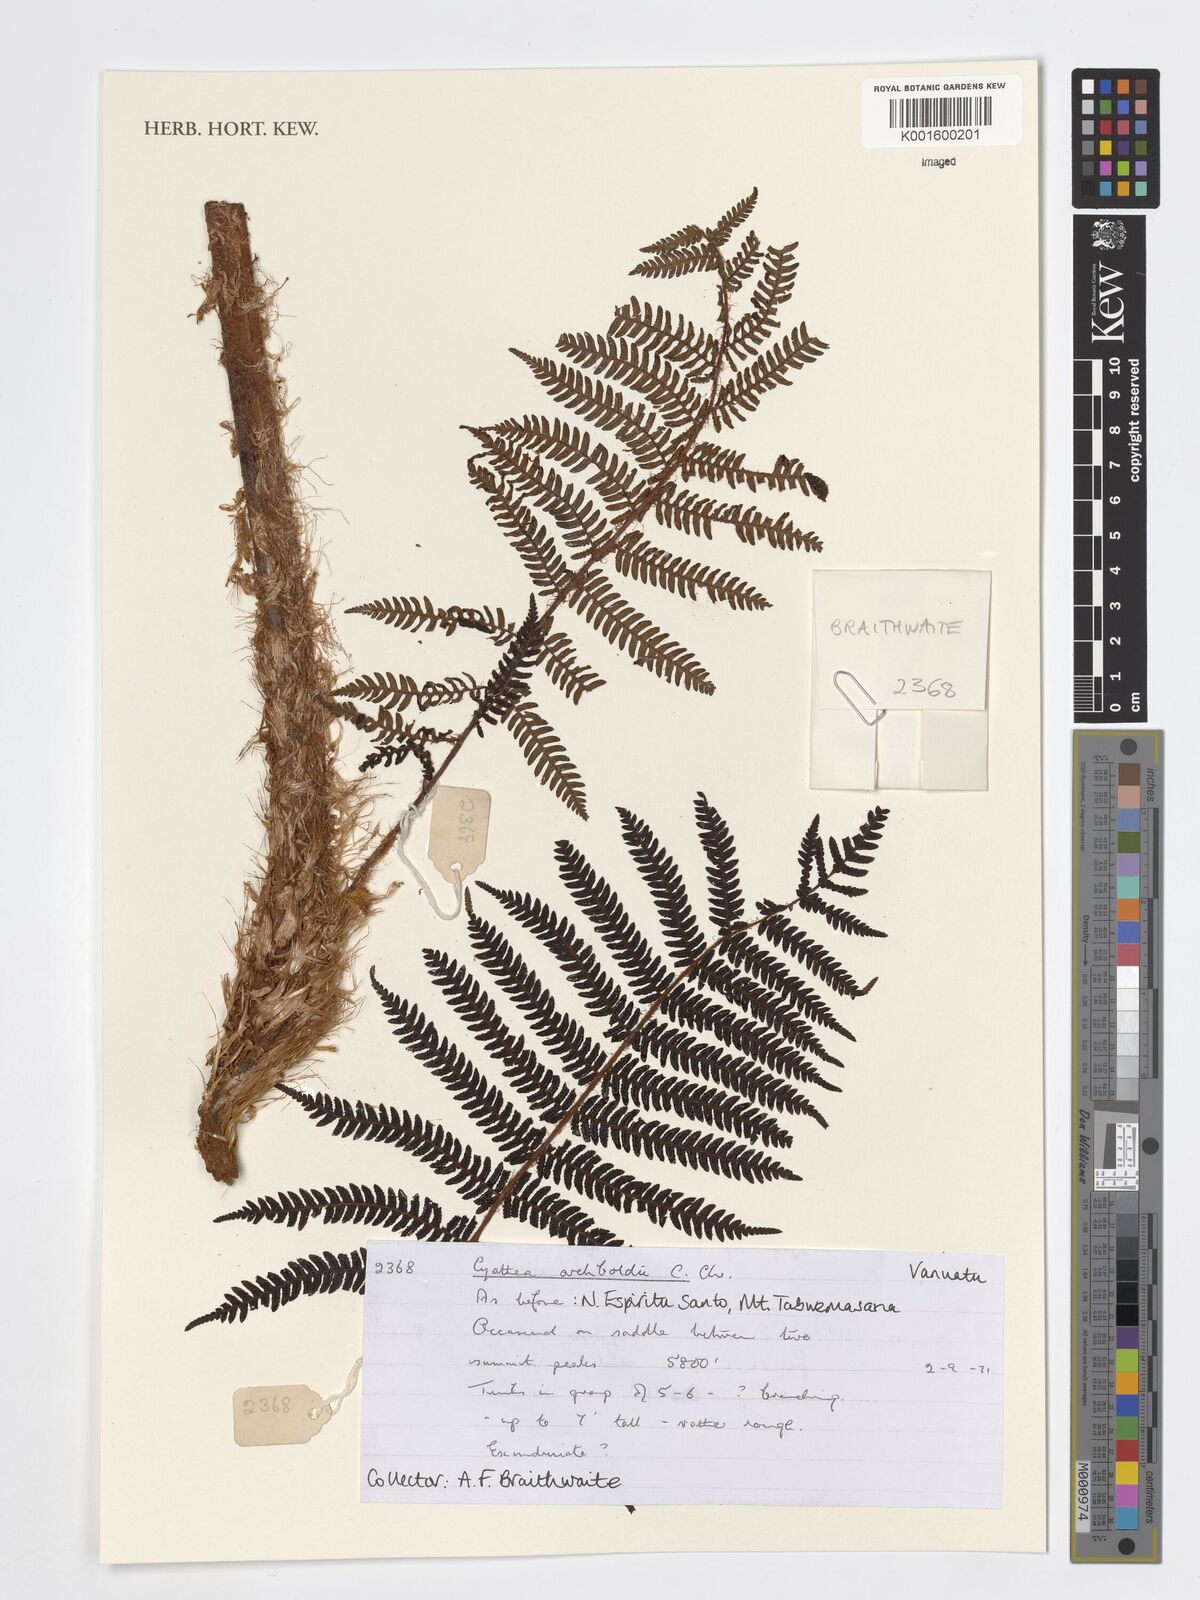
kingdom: Plantae
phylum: Tracheophyta
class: Polypodiopsida
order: Cyatheales
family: Cyatheaceae
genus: Alsophila
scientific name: Alsophila archboldii
